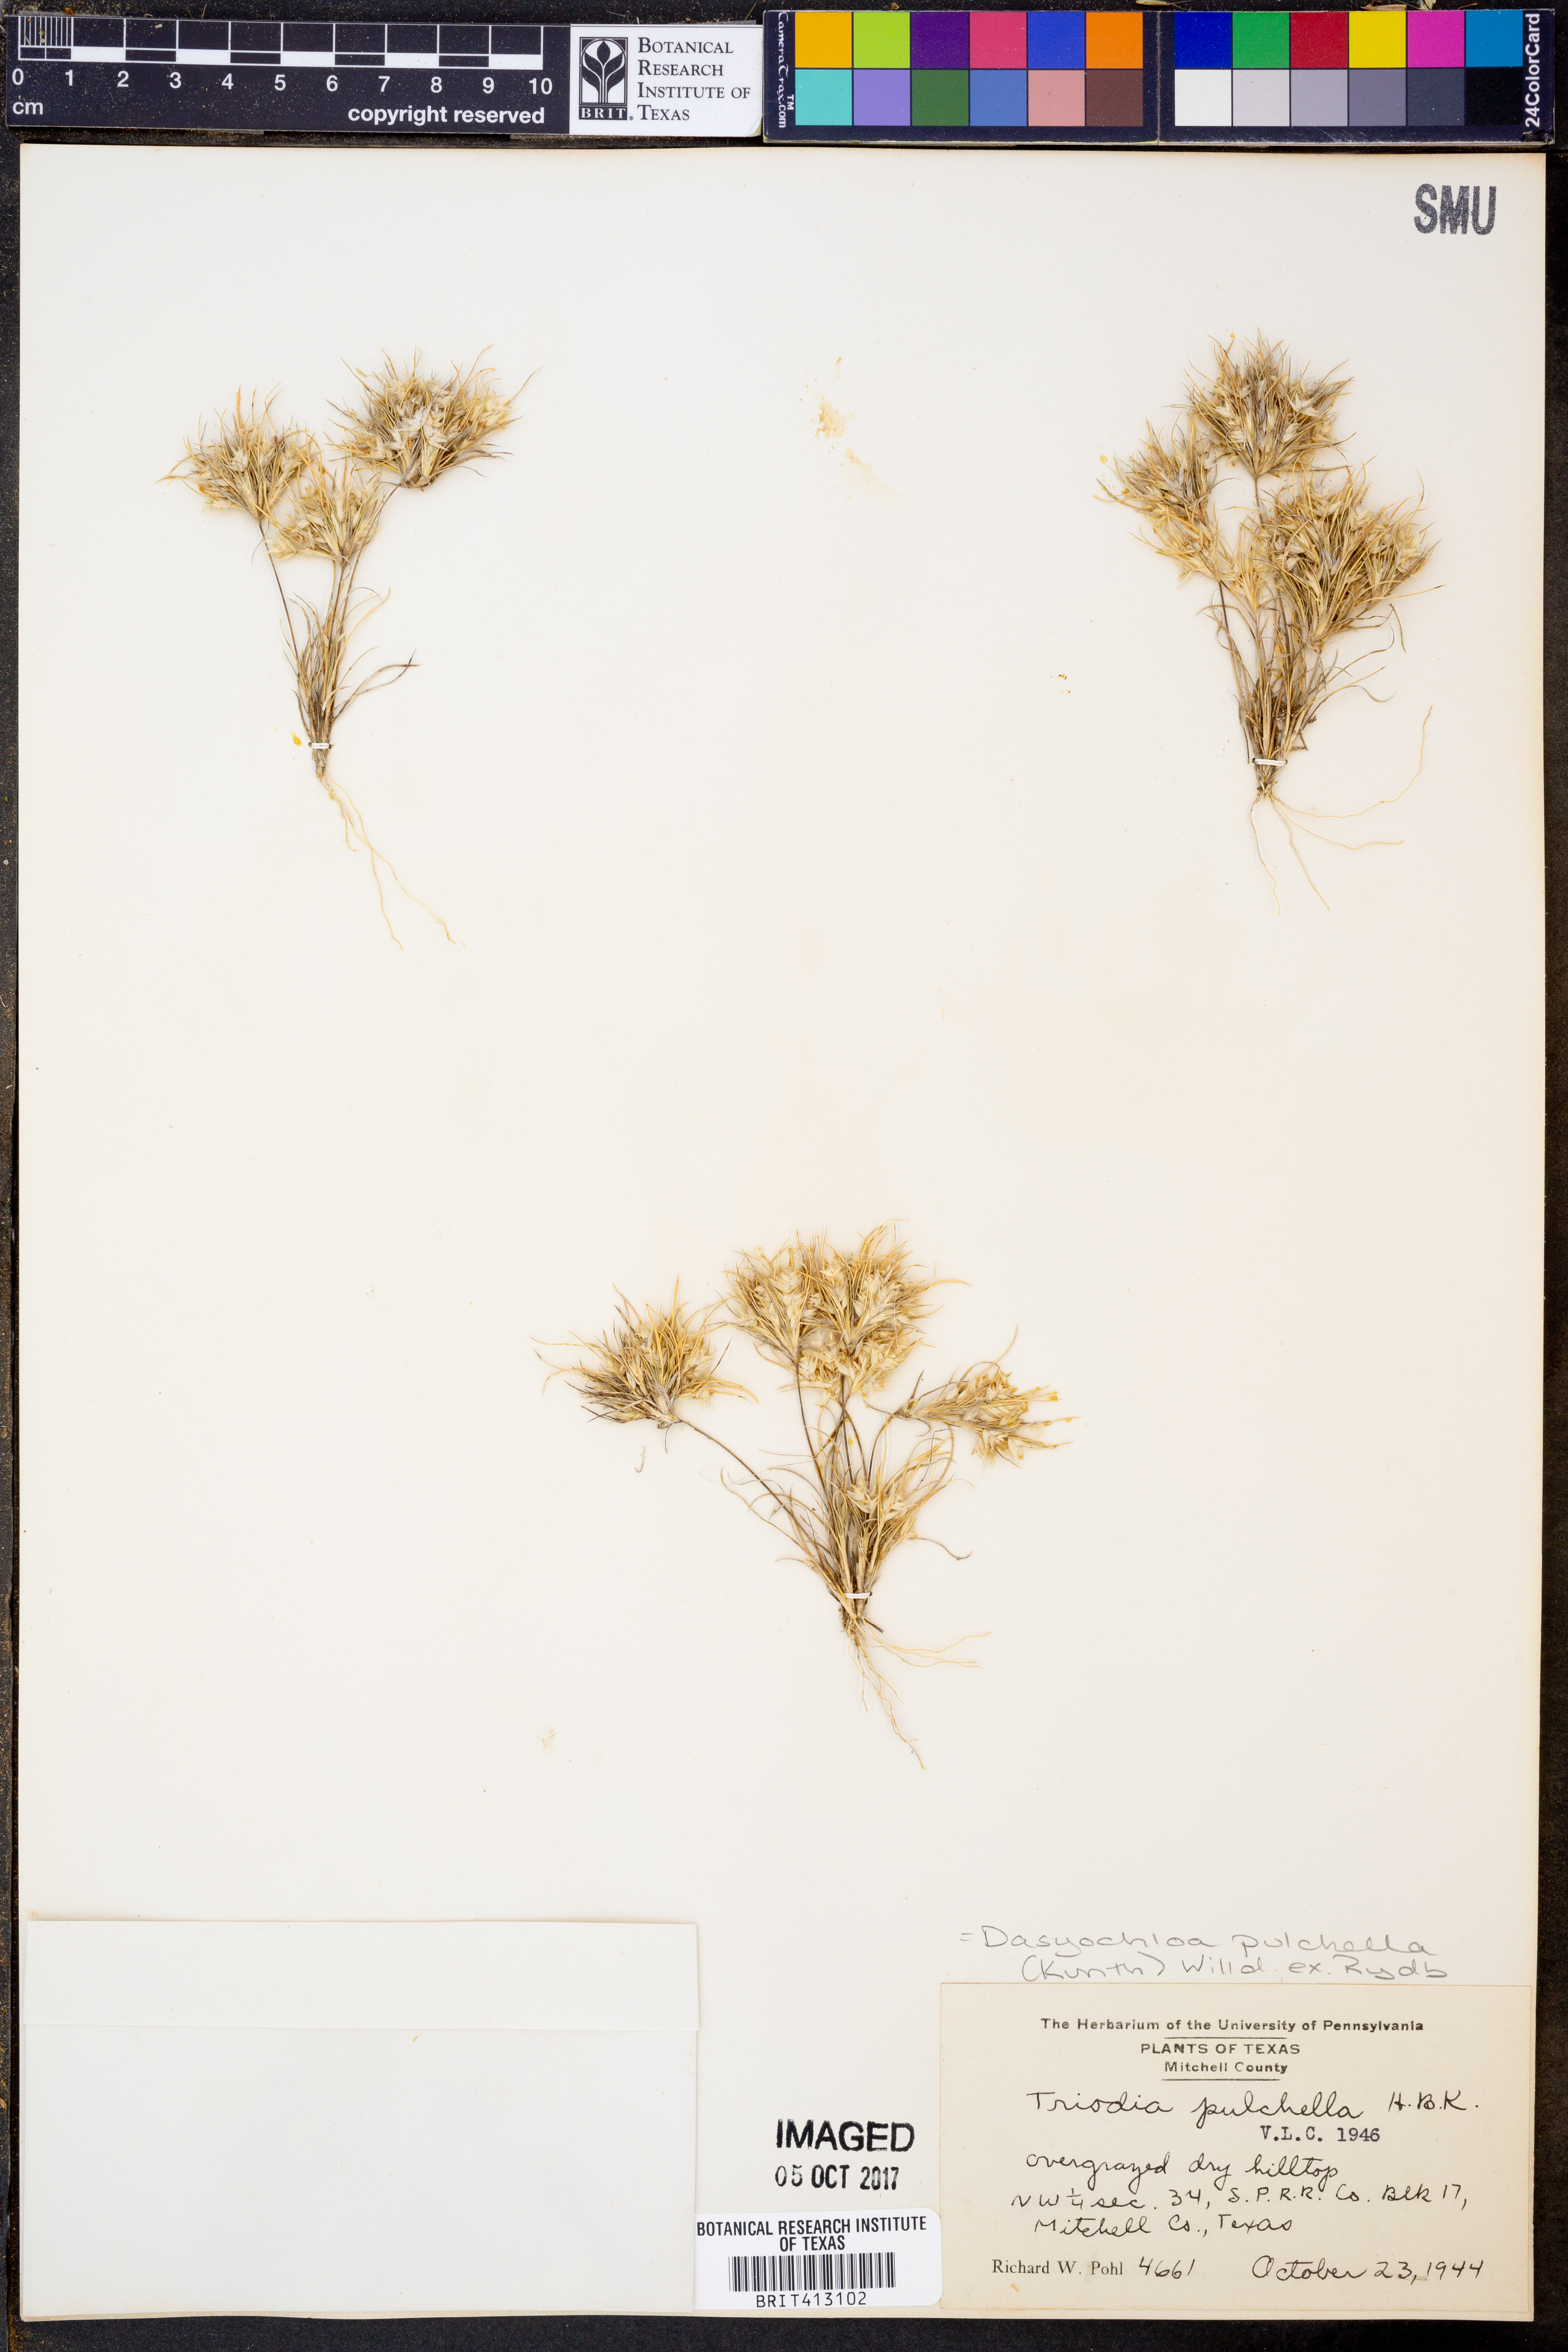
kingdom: Plantae
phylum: Tracheophyta
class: Liliopsida
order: Poales
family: Poaceae
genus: Munroa
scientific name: Munroa pulchella
